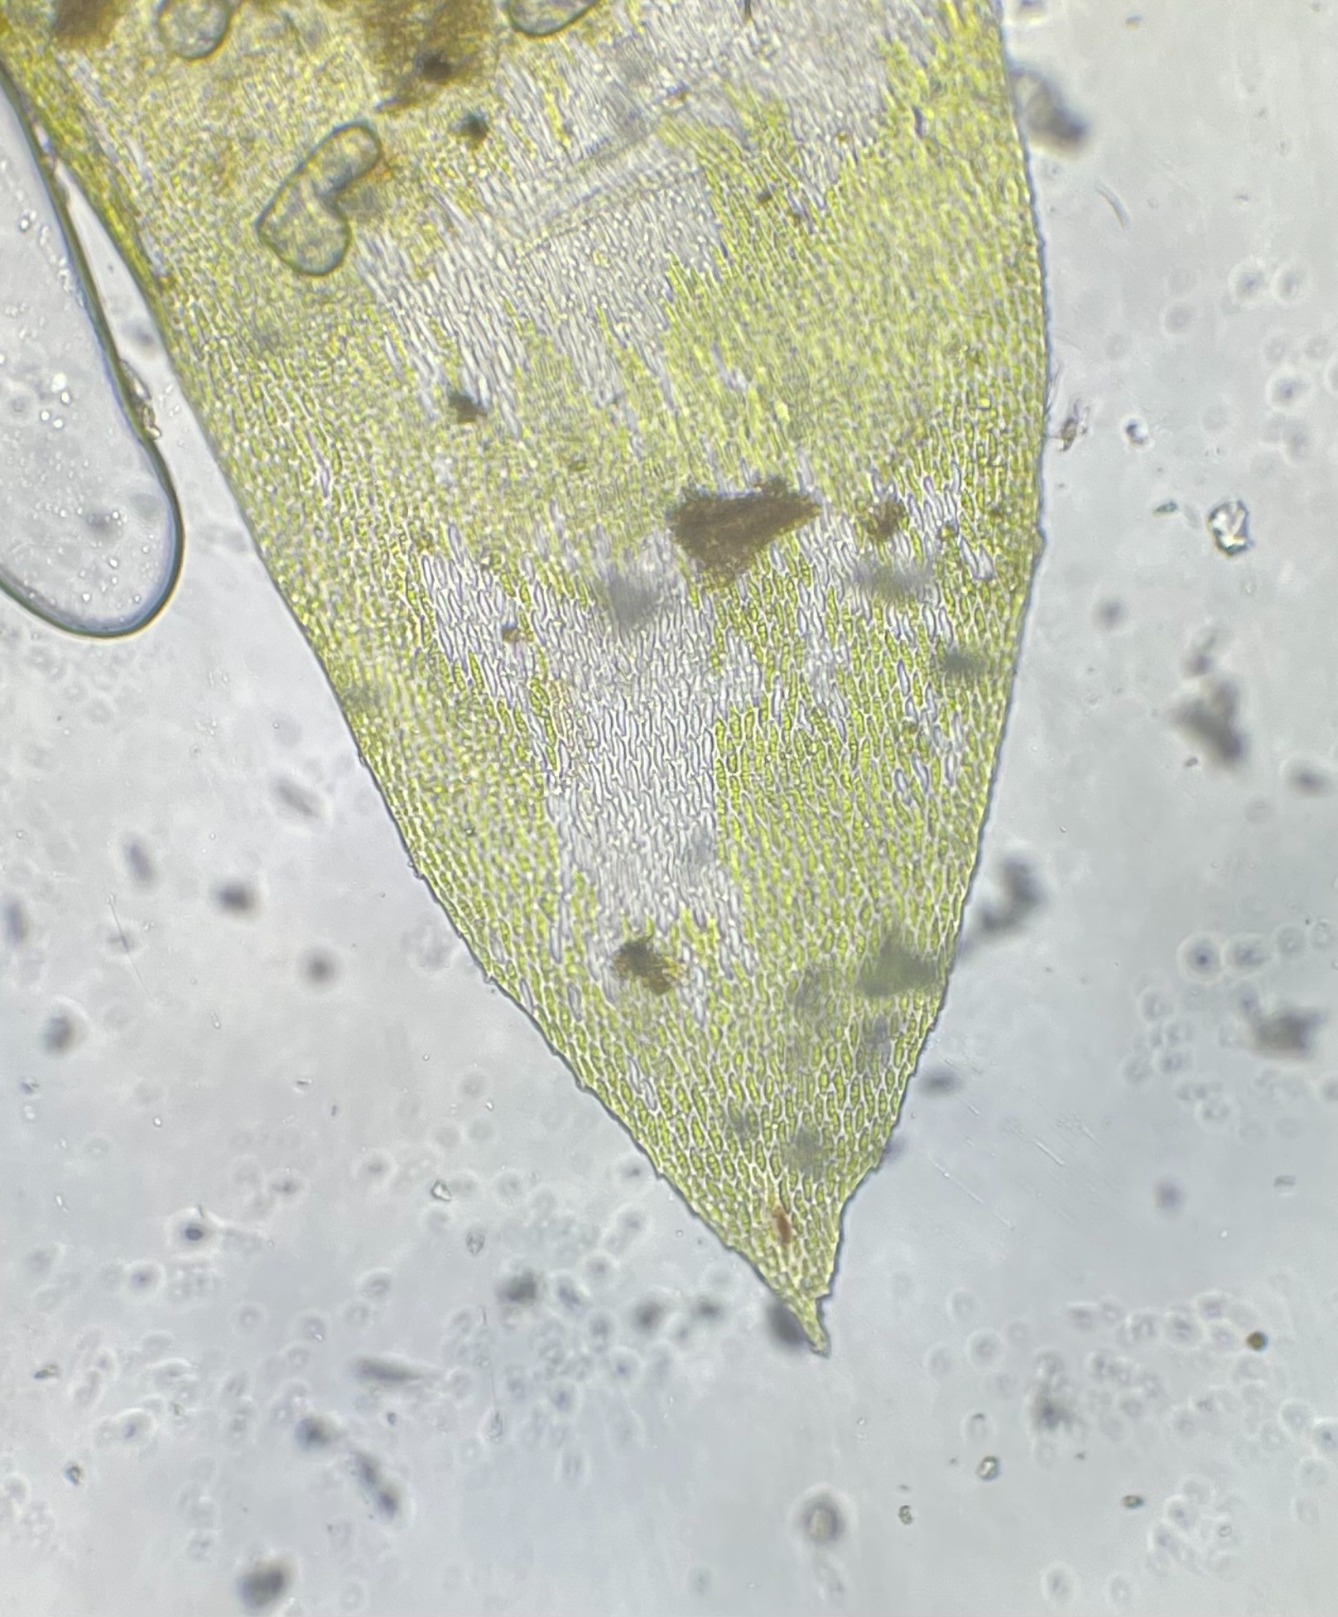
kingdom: Plantae
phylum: Bryophyta
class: Bryopsida
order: Hypnales
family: Neckeraceae
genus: Exsertotheca
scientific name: Exsertotheca crispa
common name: Kruset fladmos
